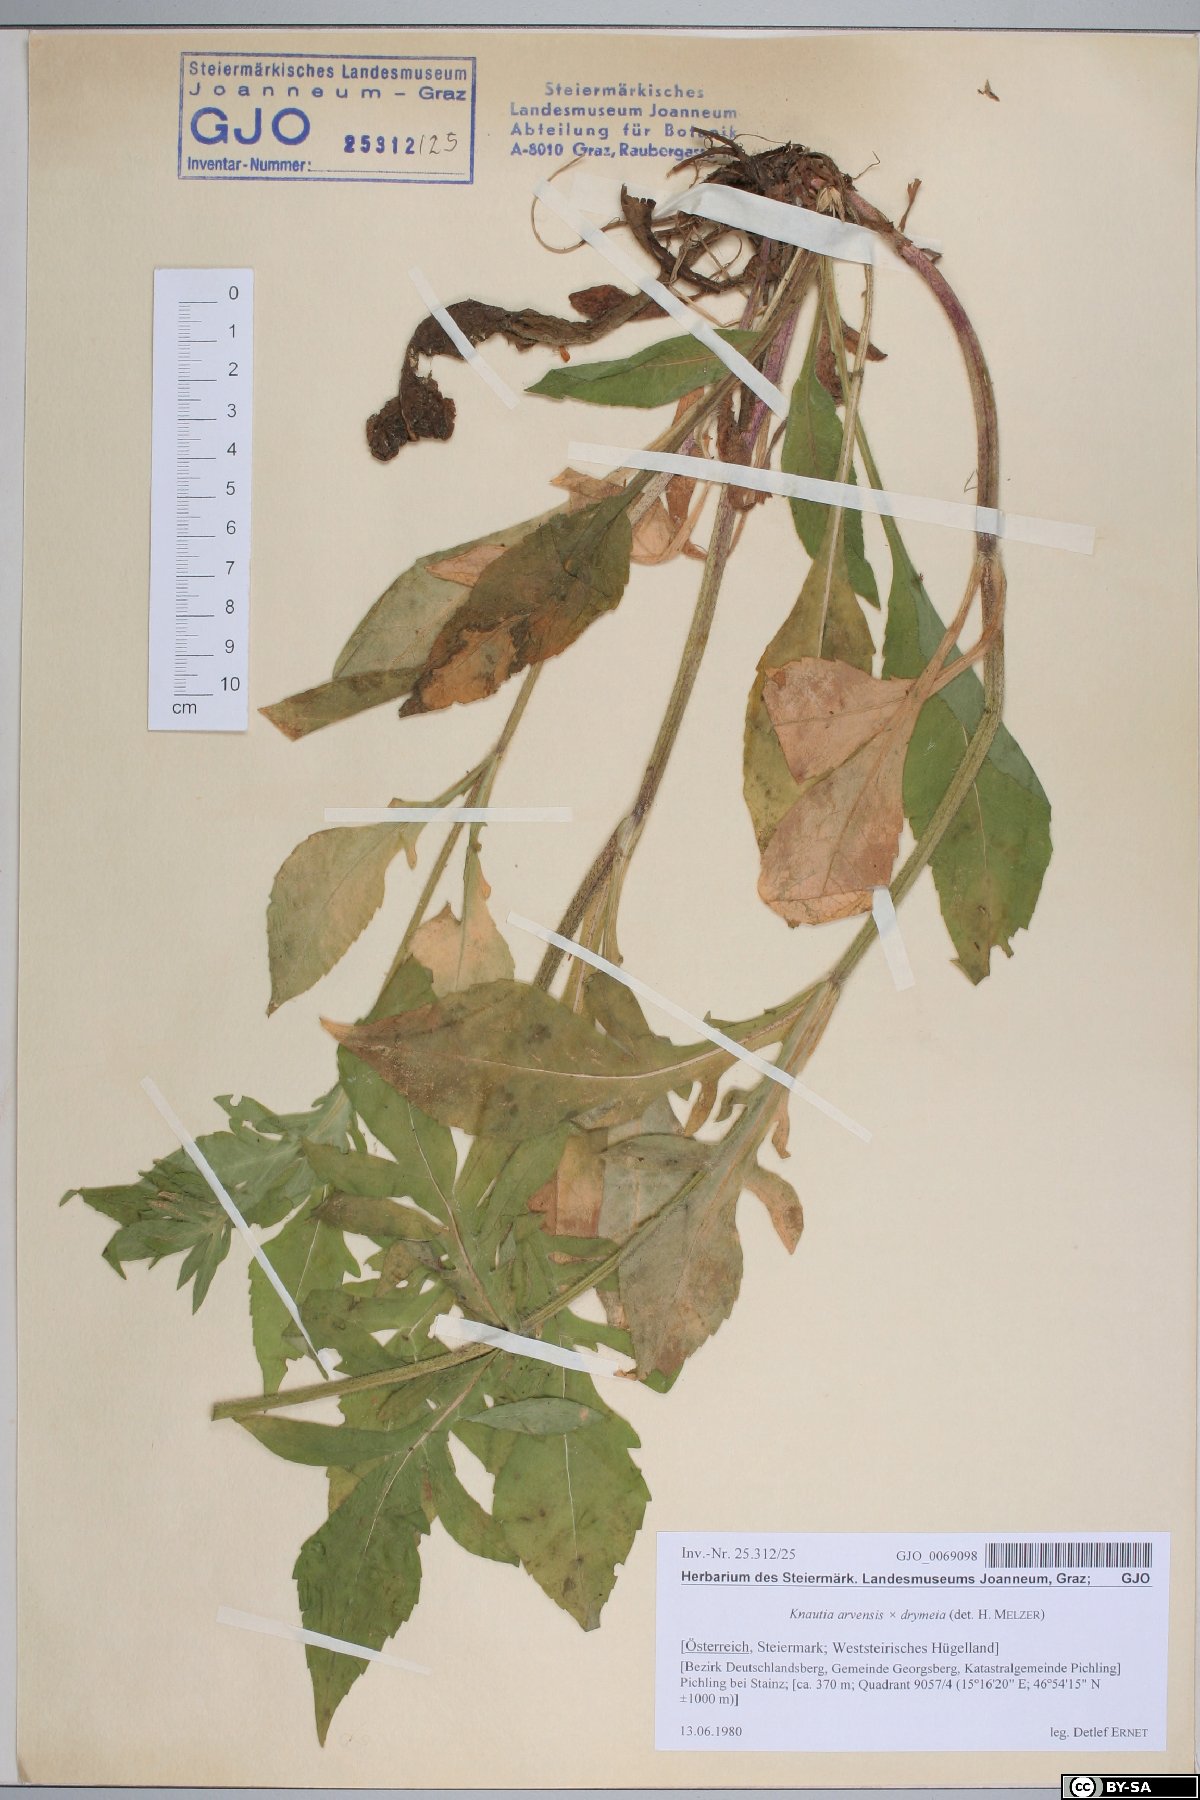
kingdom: Plantae
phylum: Tracheophyta
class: Magnoliopsida
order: Dipsacales
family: Dipsacaceae
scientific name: Dipsacaceae
